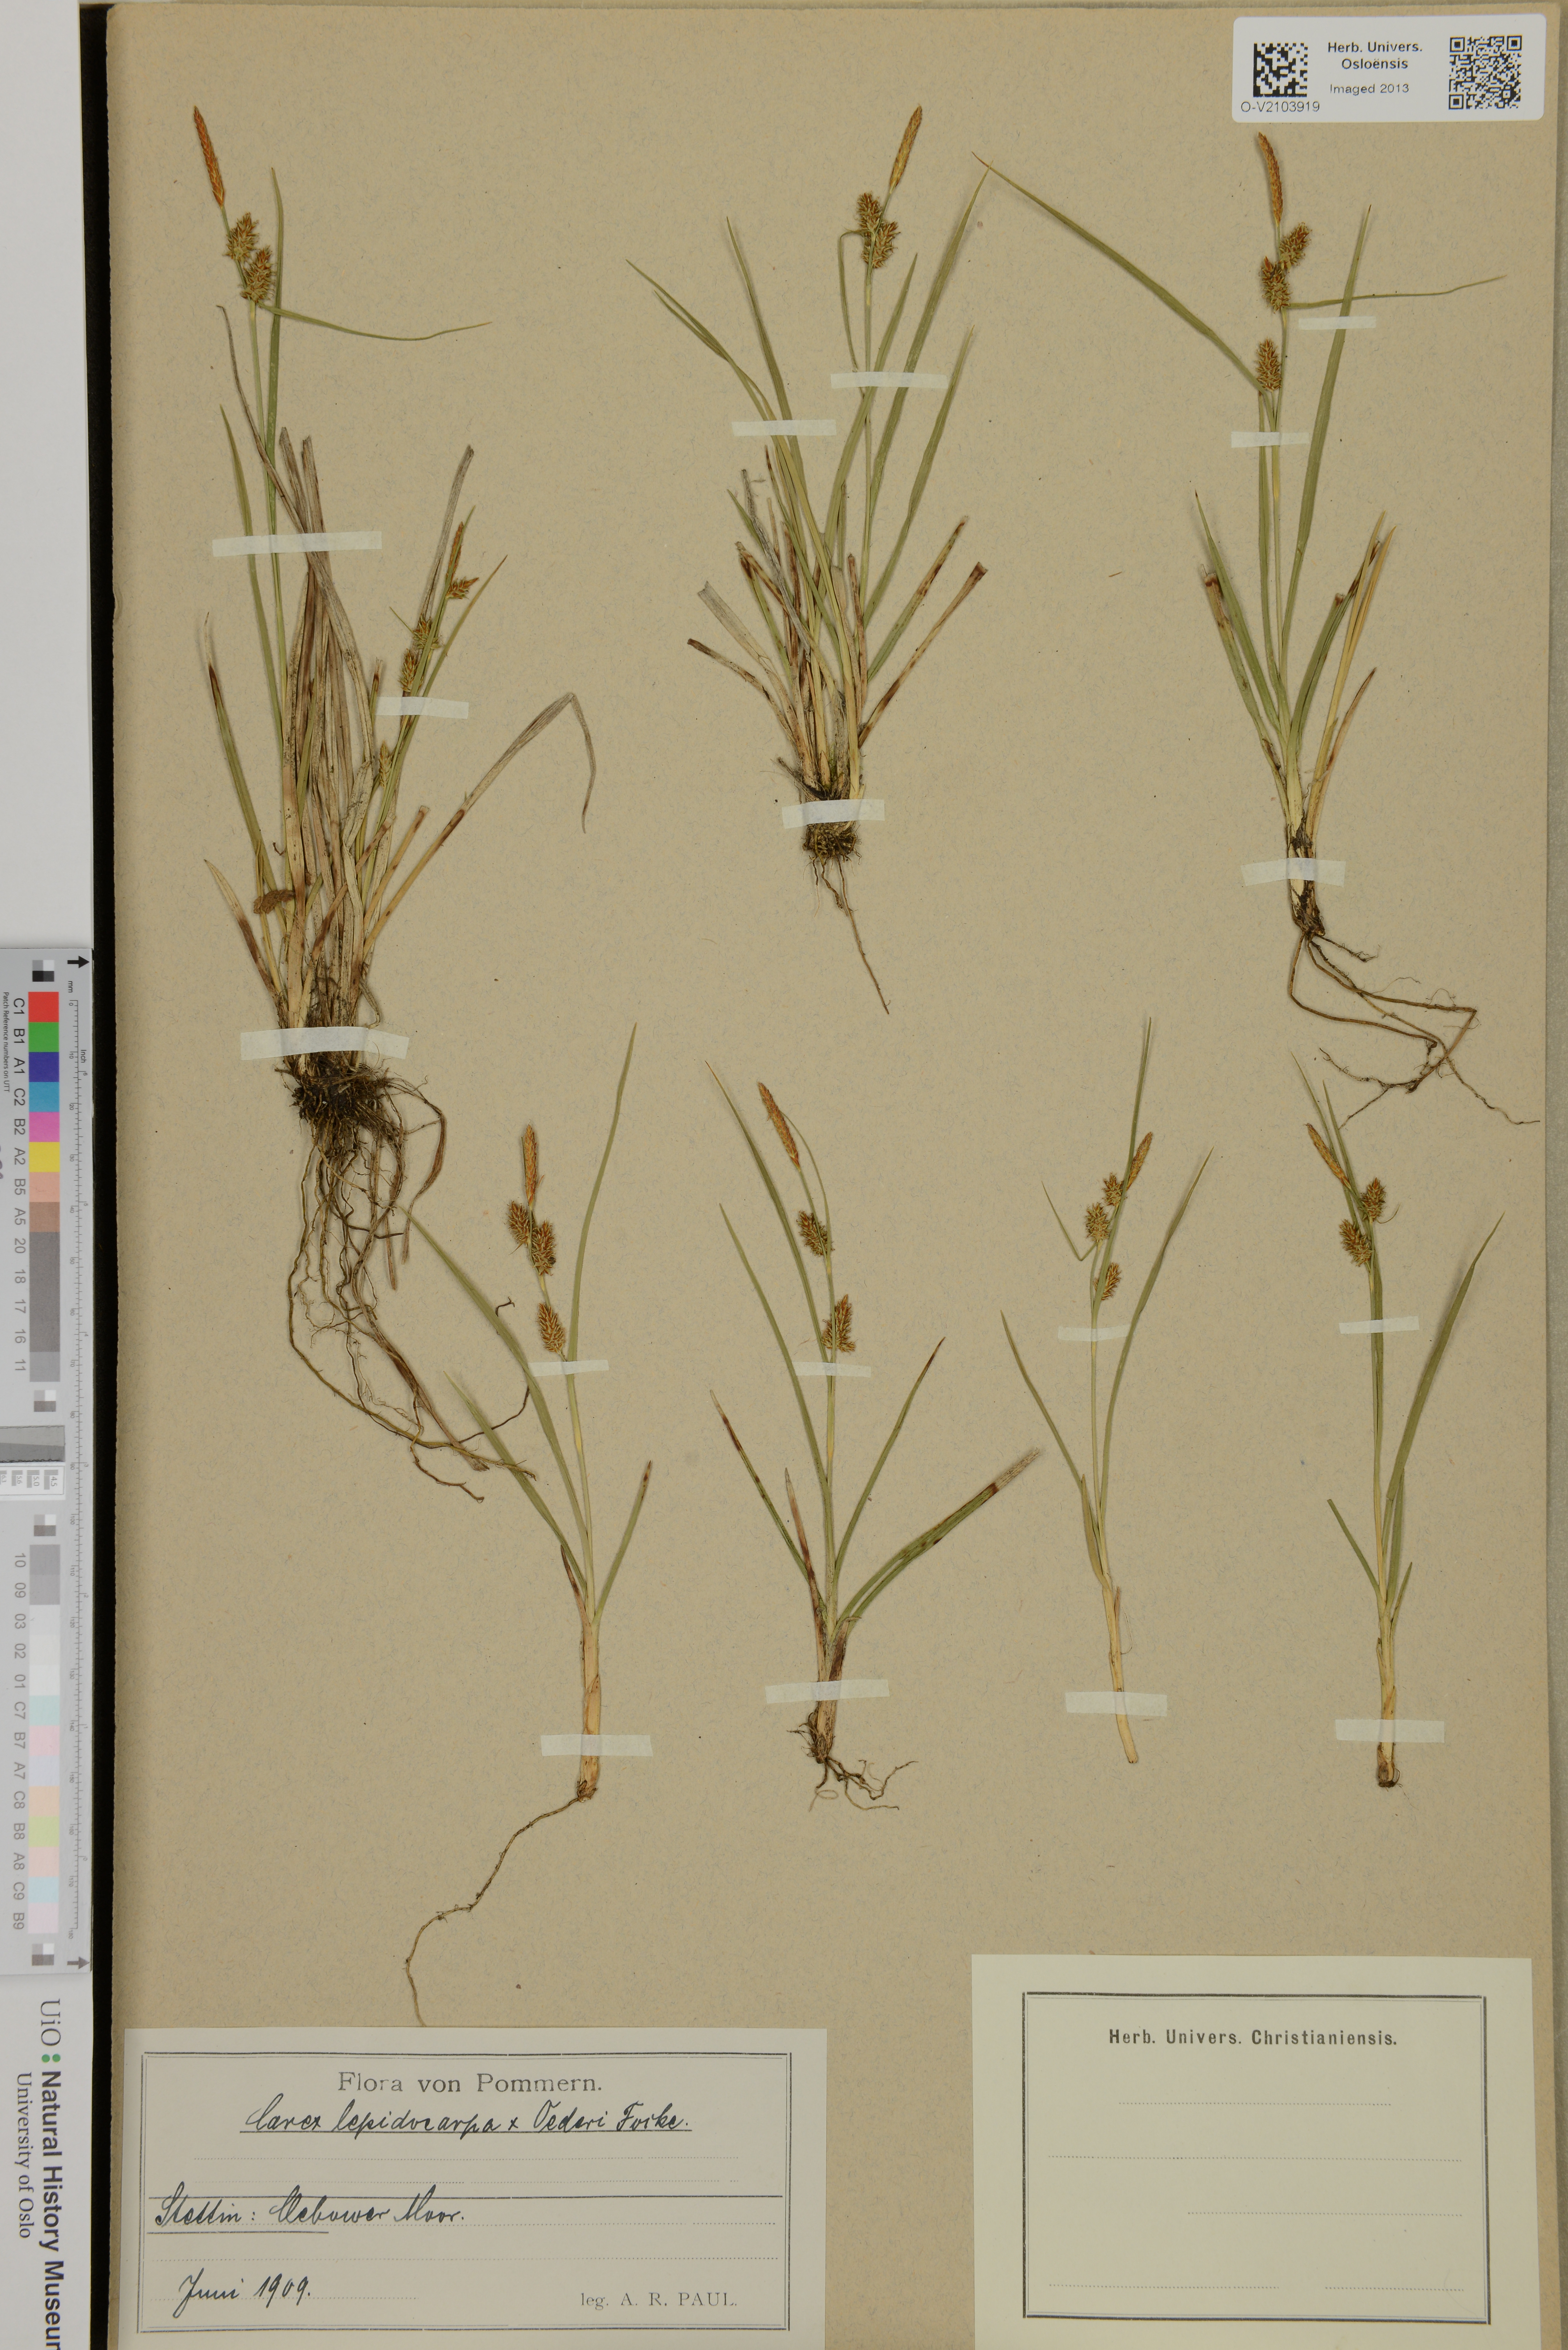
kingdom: Plantae
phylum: Tracheophyta
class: Liliopsida
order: Poales
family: Cyperaceae
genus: Carex
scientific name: Carex lepidocarpa
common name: Long-stalked yellow-sedge
